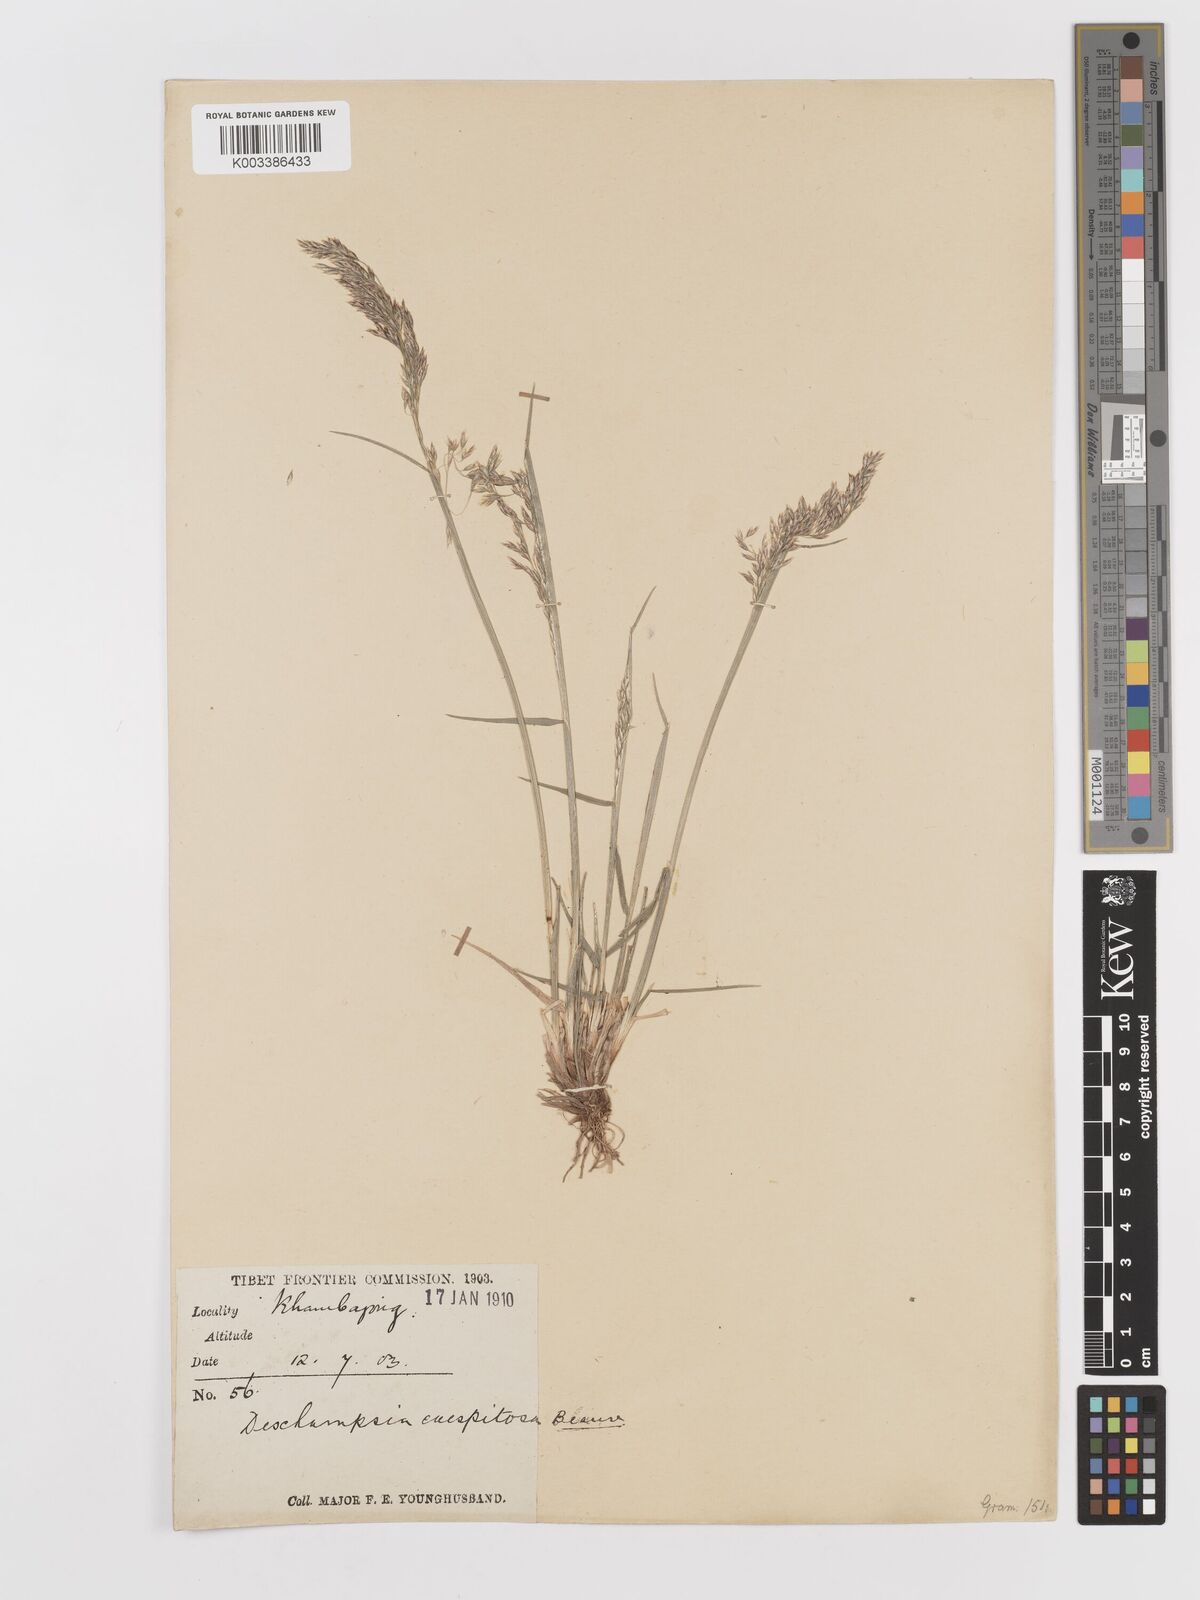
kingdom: Plantae
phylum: Tracheophyta
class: Liliopsida
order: Poales
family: Poaceae
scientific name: Poaceae
